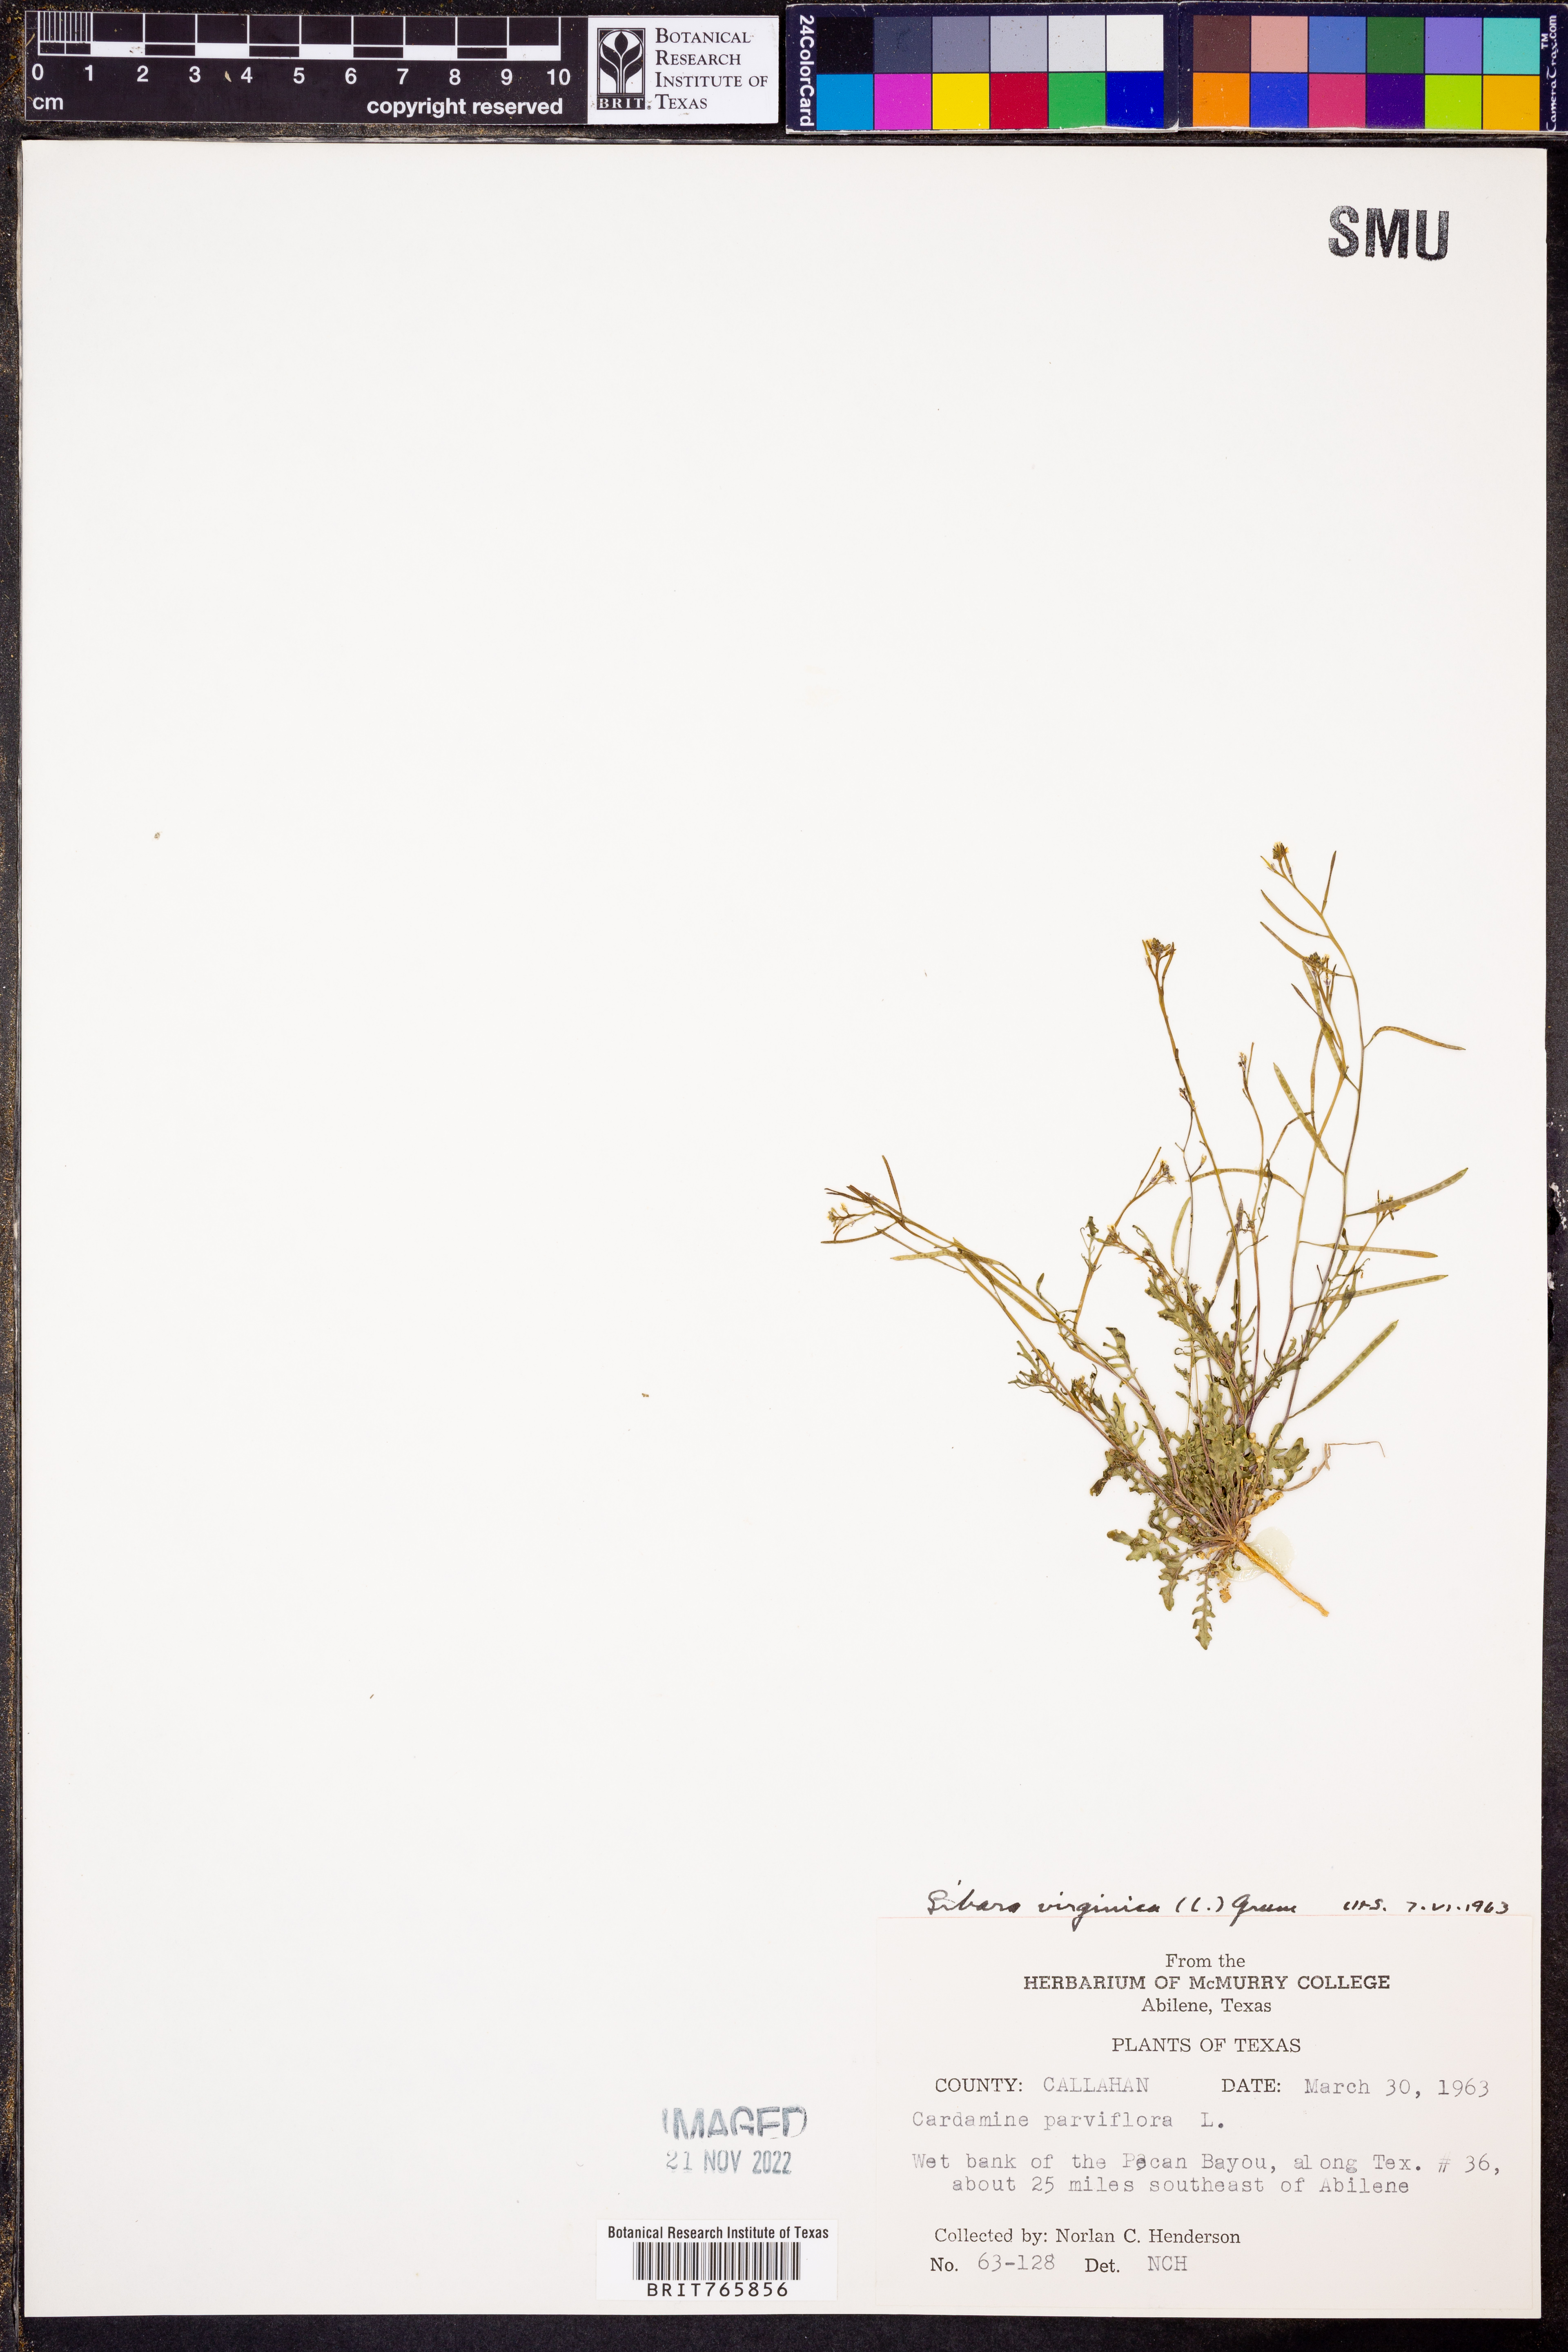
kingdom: Plantae
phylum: Tracheophyta
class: Magnoliopsida
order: Brassicales
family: Brassicaceae
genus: Planodes
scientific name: Planodes virginicum
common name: Virginia cress
